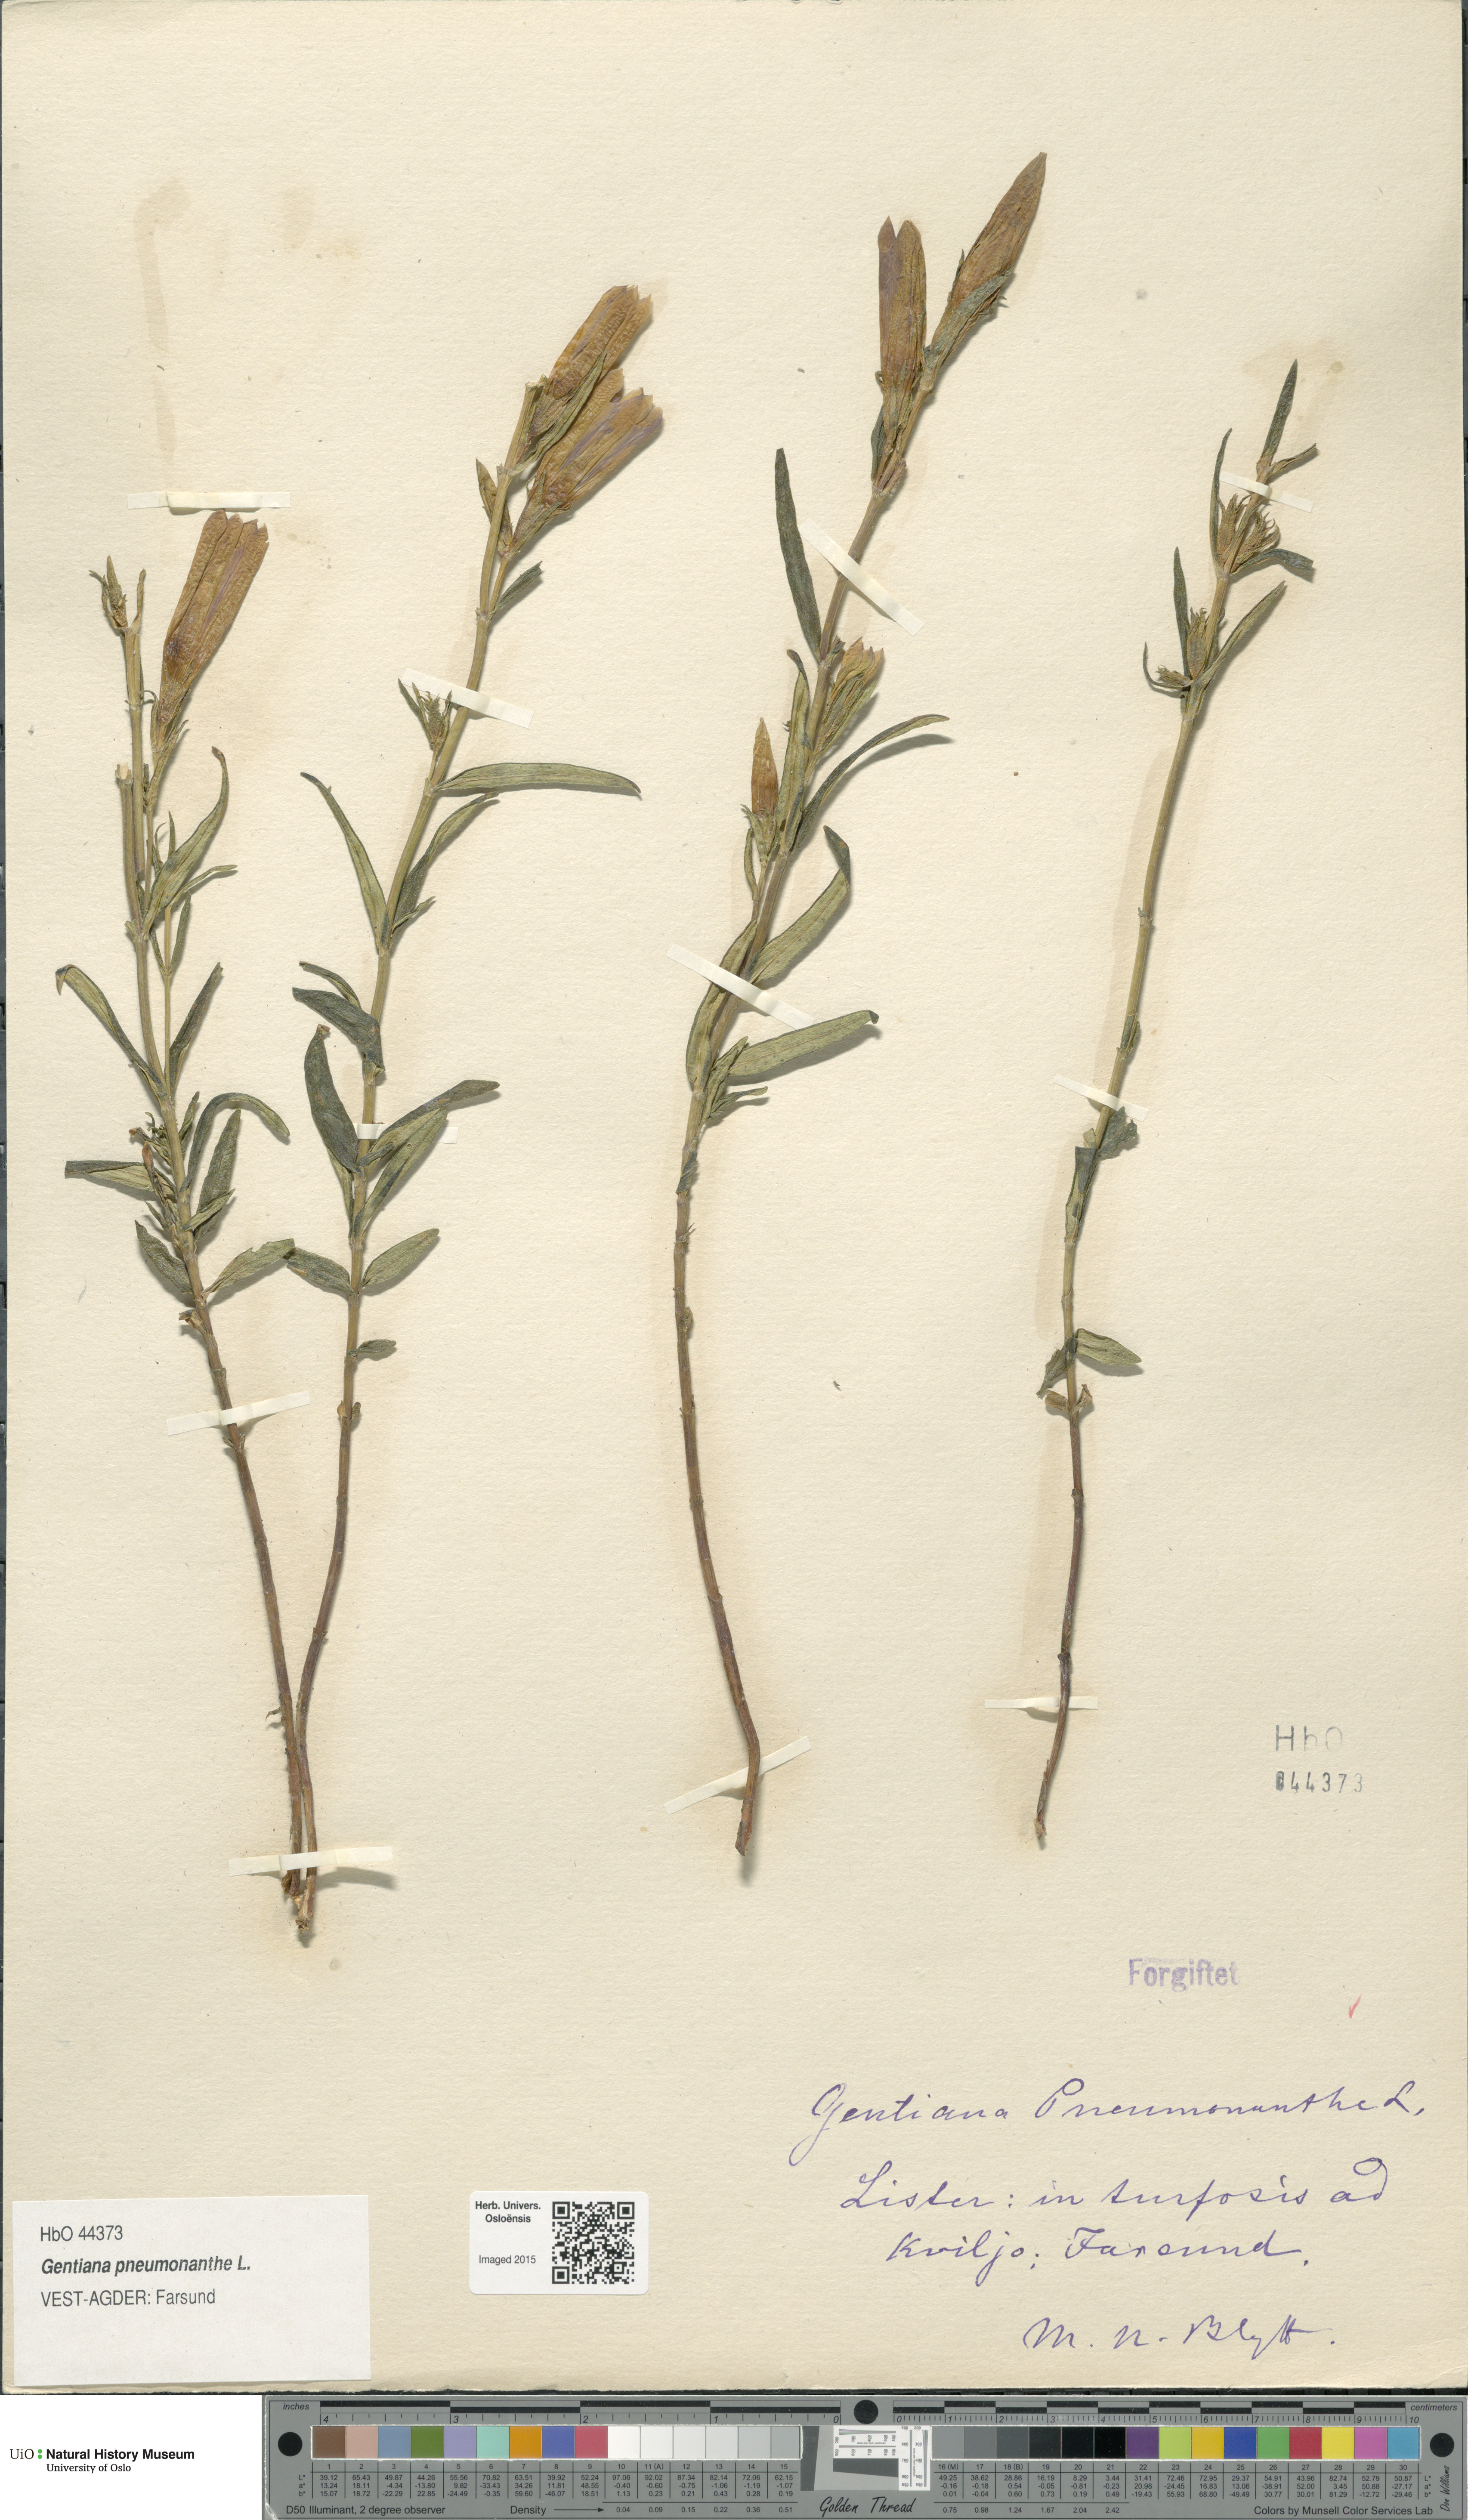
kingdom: Plantae
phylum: Tracheophyta
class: Magnoliopsida
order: Gentianales
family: Gentianaceae
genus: Gentiana
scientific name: Gentiana pneumonanthe
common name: Marsh gentian
